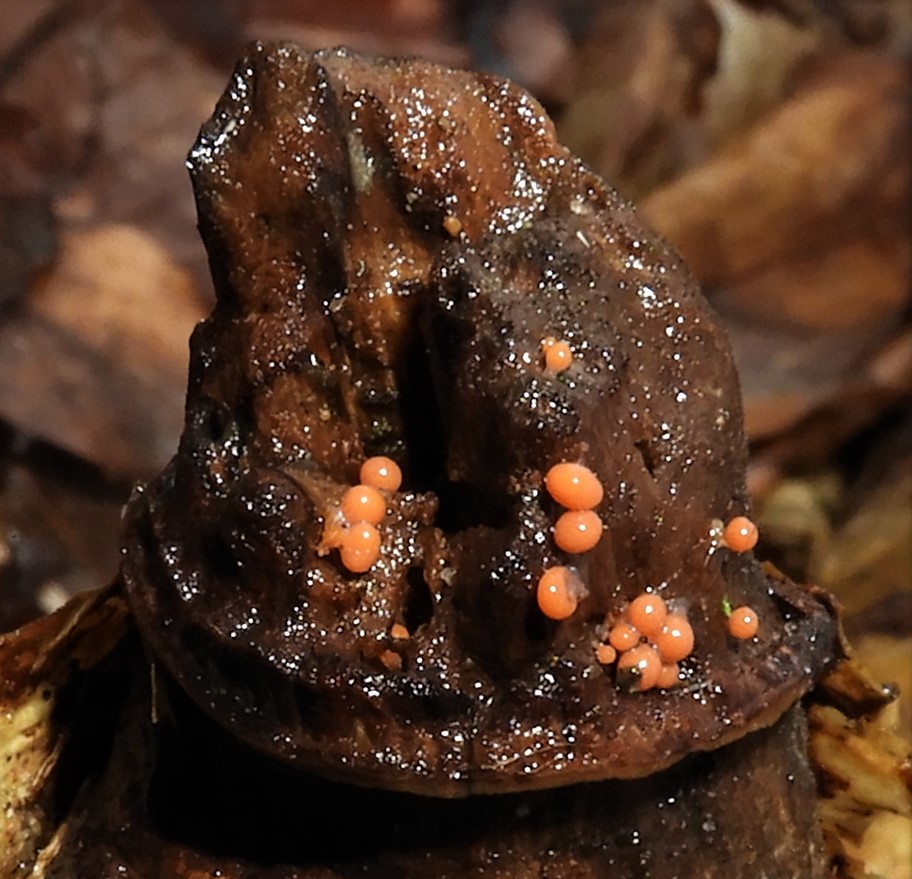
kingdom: Protozoa
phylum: Mycetozoa
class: Myxomycetes
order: Trichiales
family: Trichiaceae
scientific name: Trichiaceae
